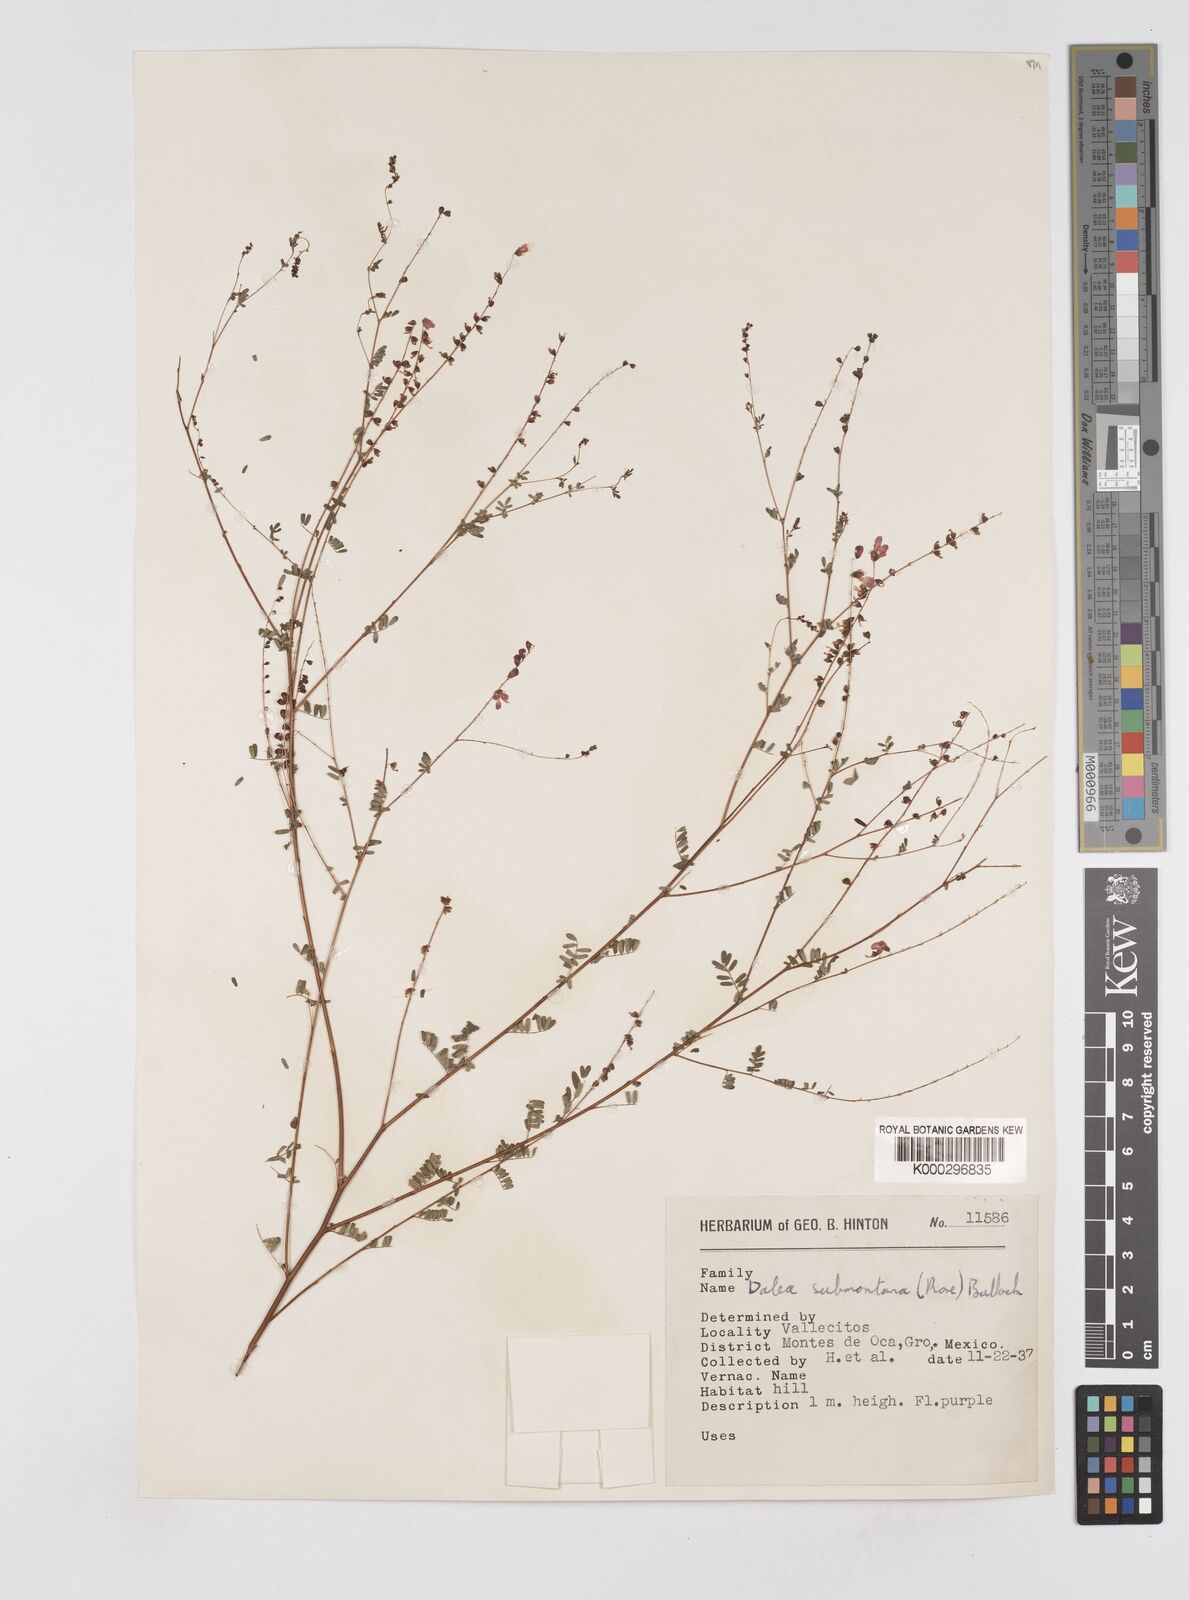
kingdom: Plantae
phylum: Tracheophyta
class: Magnoliopsida
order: Fabales
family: Fabaceae
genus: Marina
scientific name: Marina nutans
